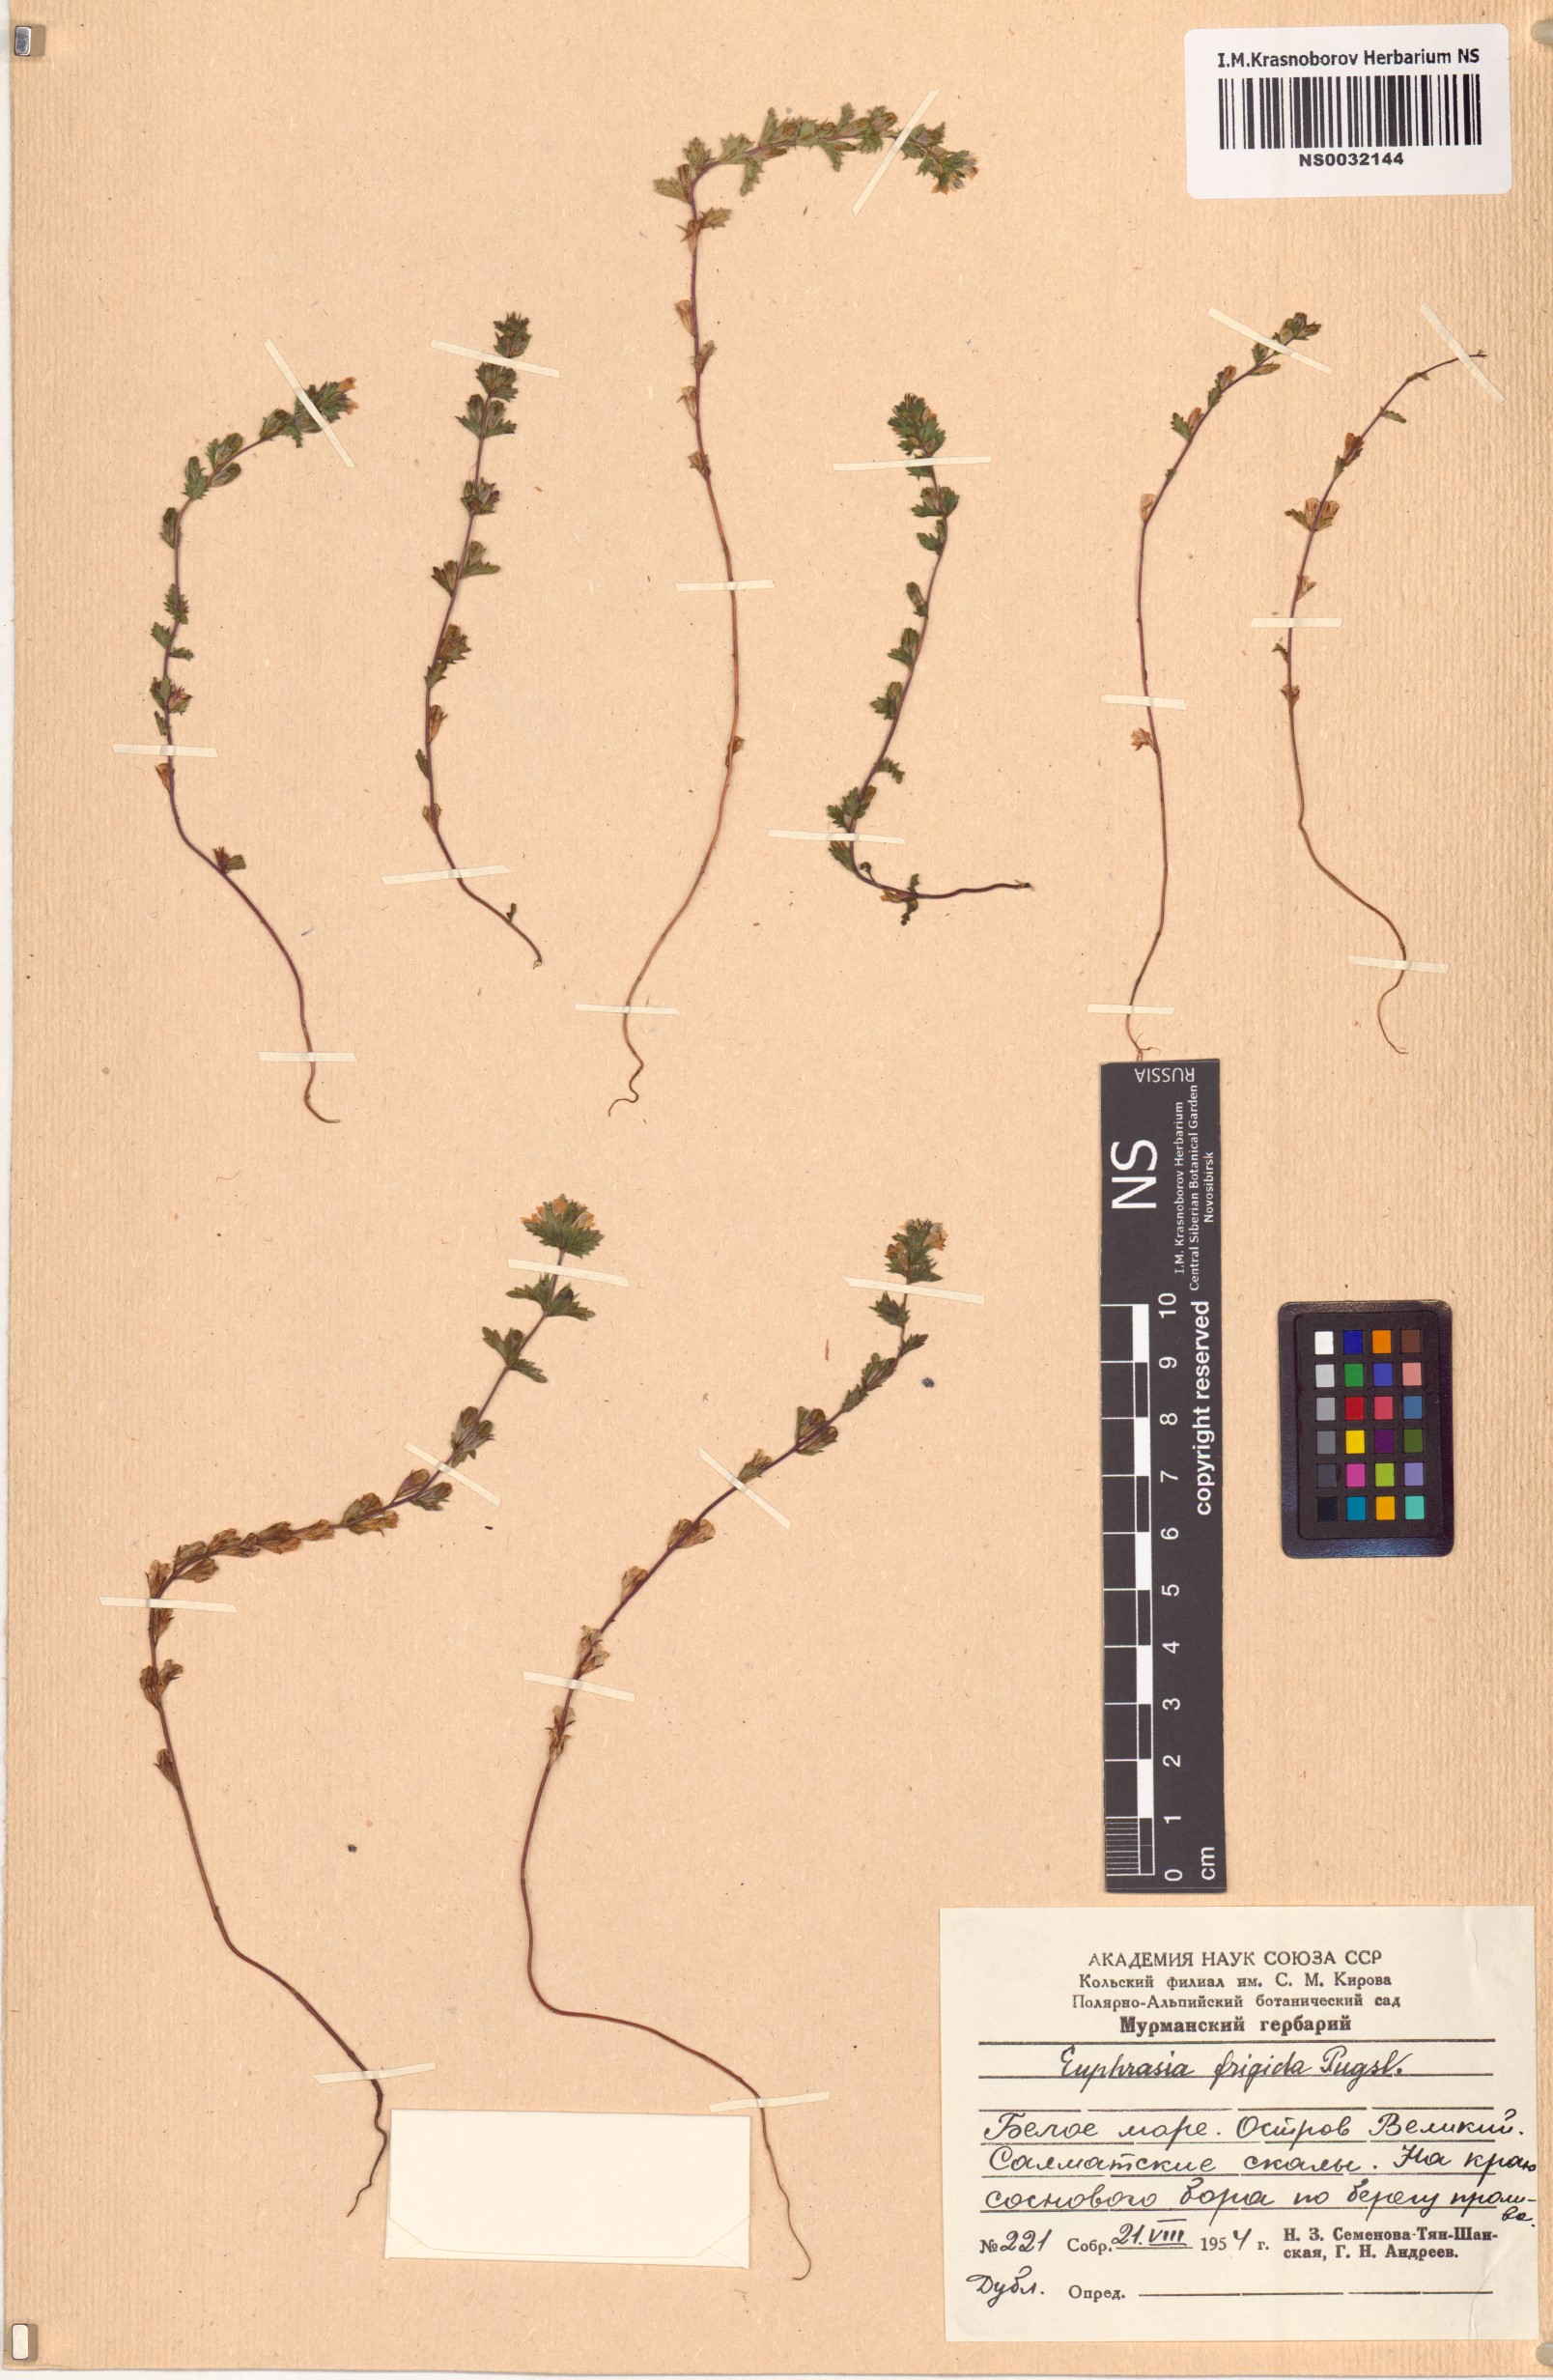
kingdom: Plantae
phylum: Tracheophyta
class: Magnoliopsida
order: Lamiales
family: Orobanchaceae
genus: Euphrasia
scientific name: Euphrasia frigida
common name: An eyebright
